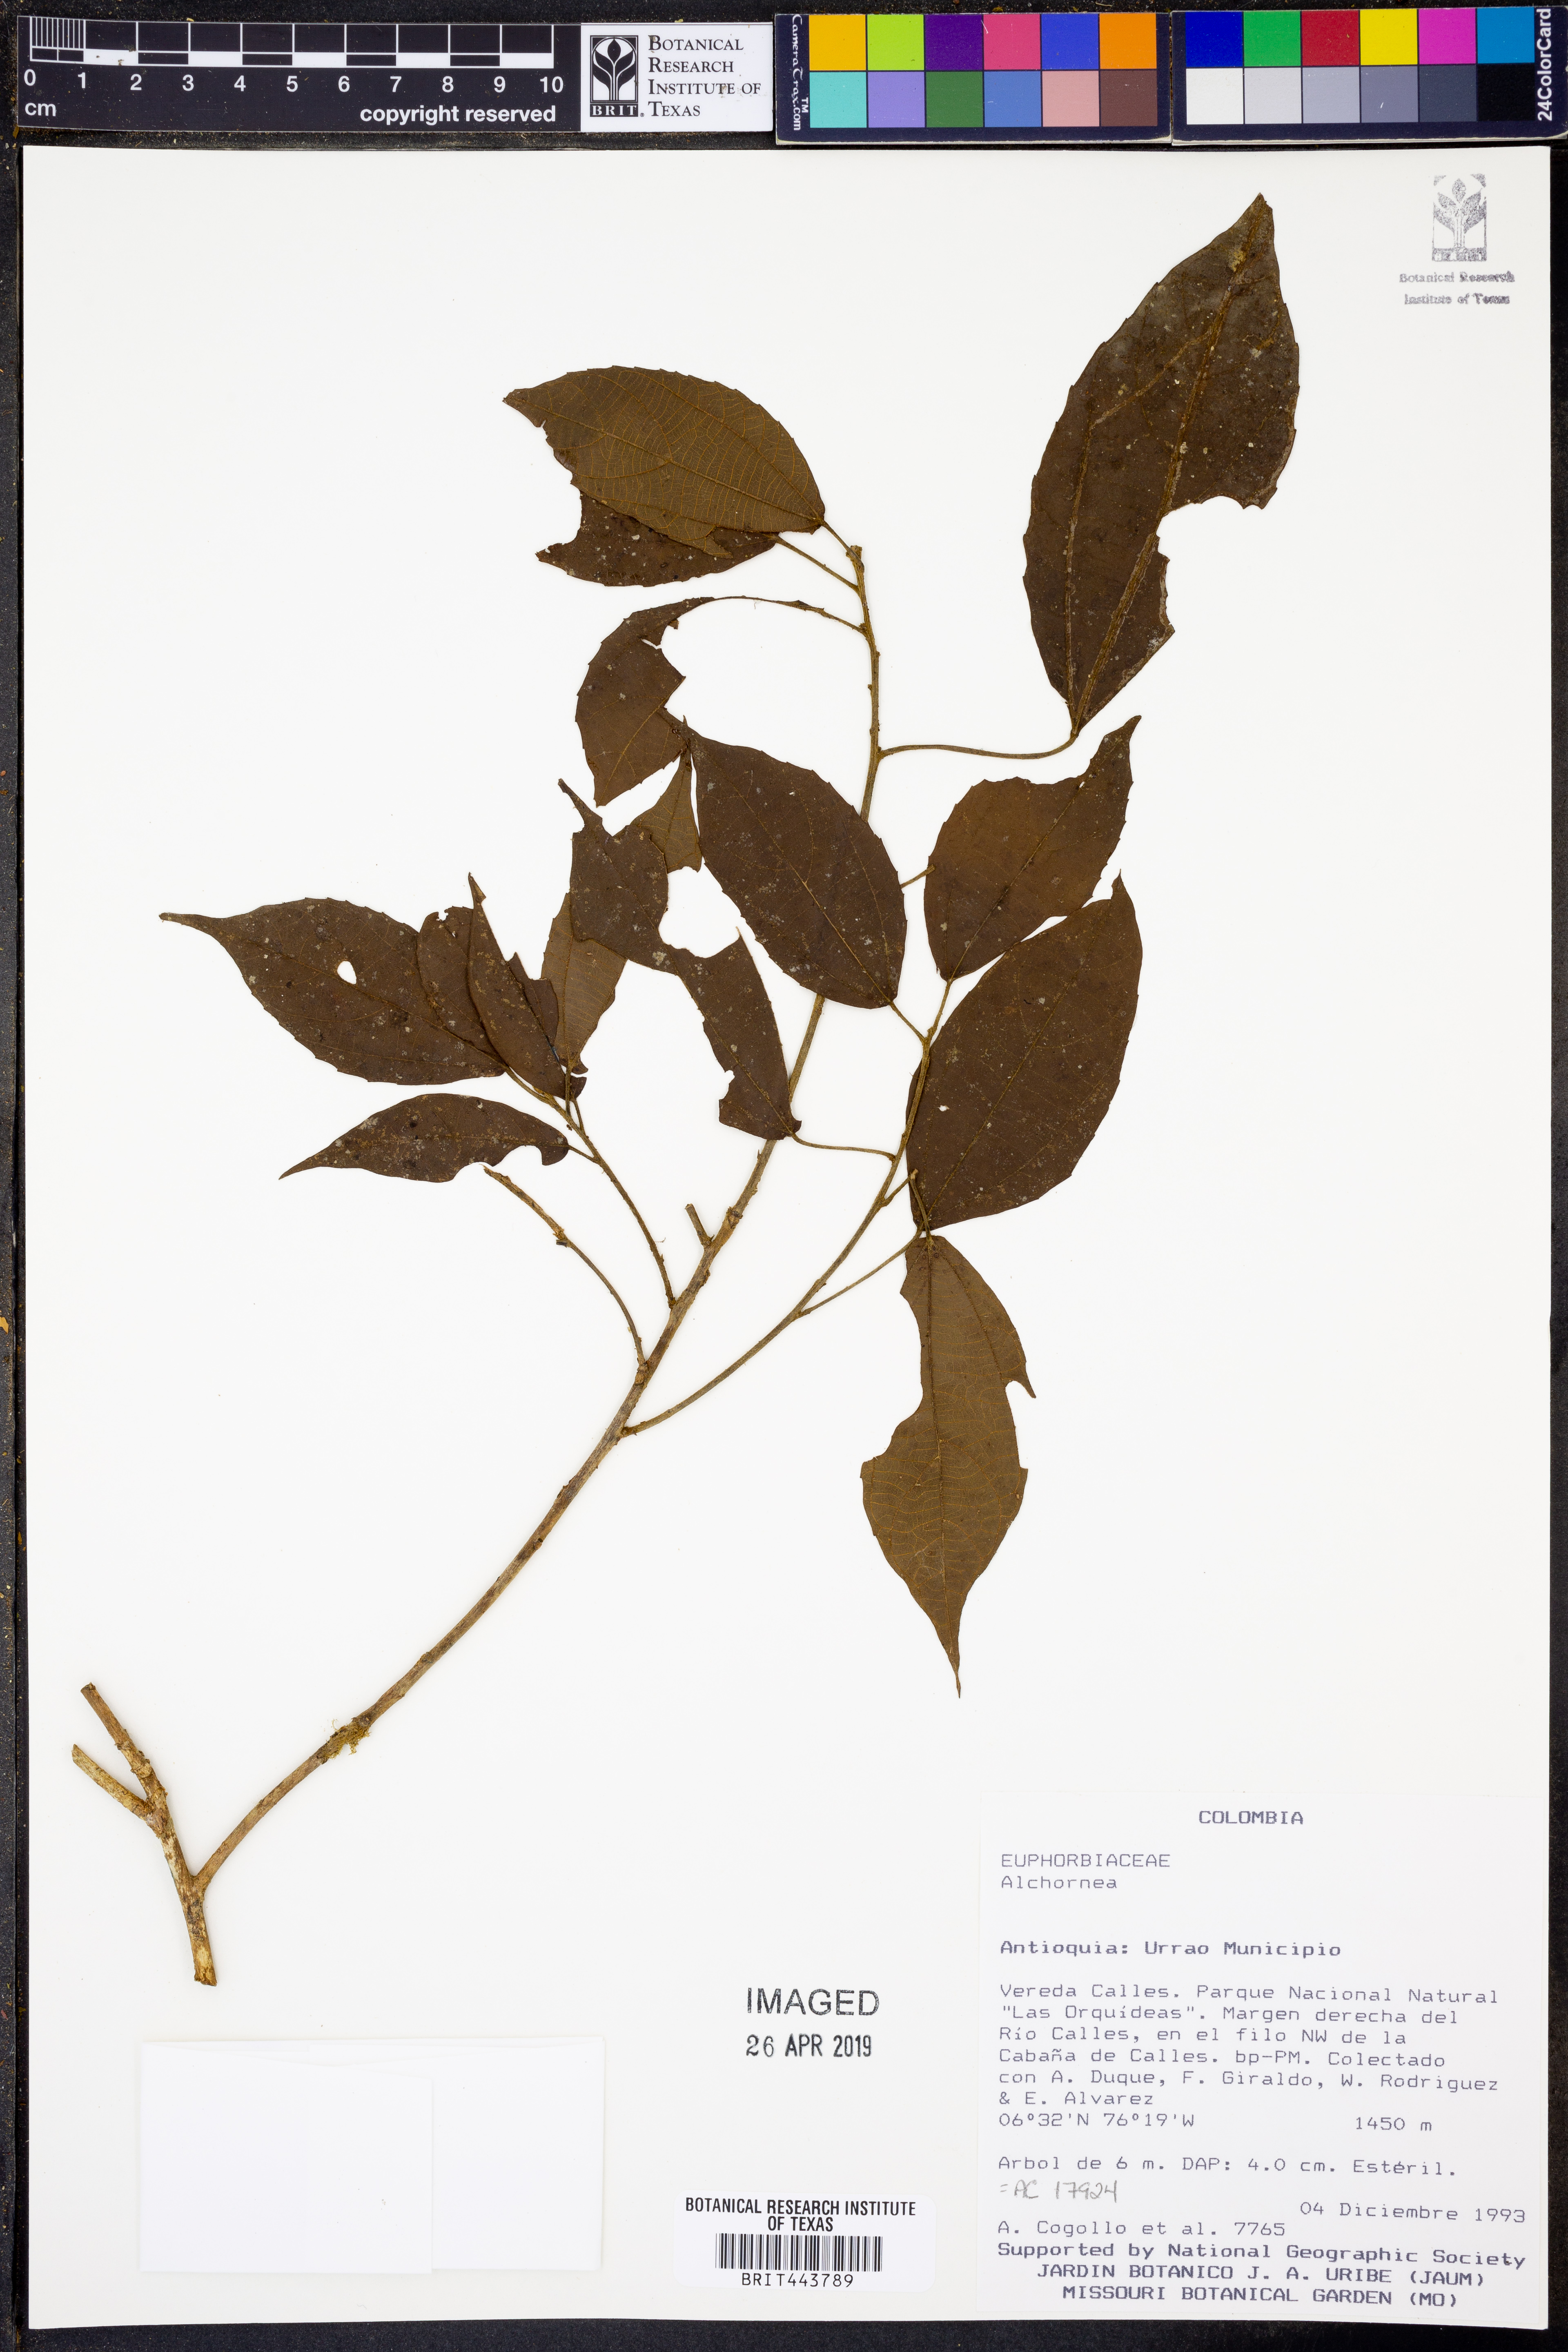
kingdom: Plantae
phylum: Tracheophyta
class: Magnoliopsida
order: Malpighiales
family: Euphorbiaceae
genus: Alchornea
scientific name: Alchornea
